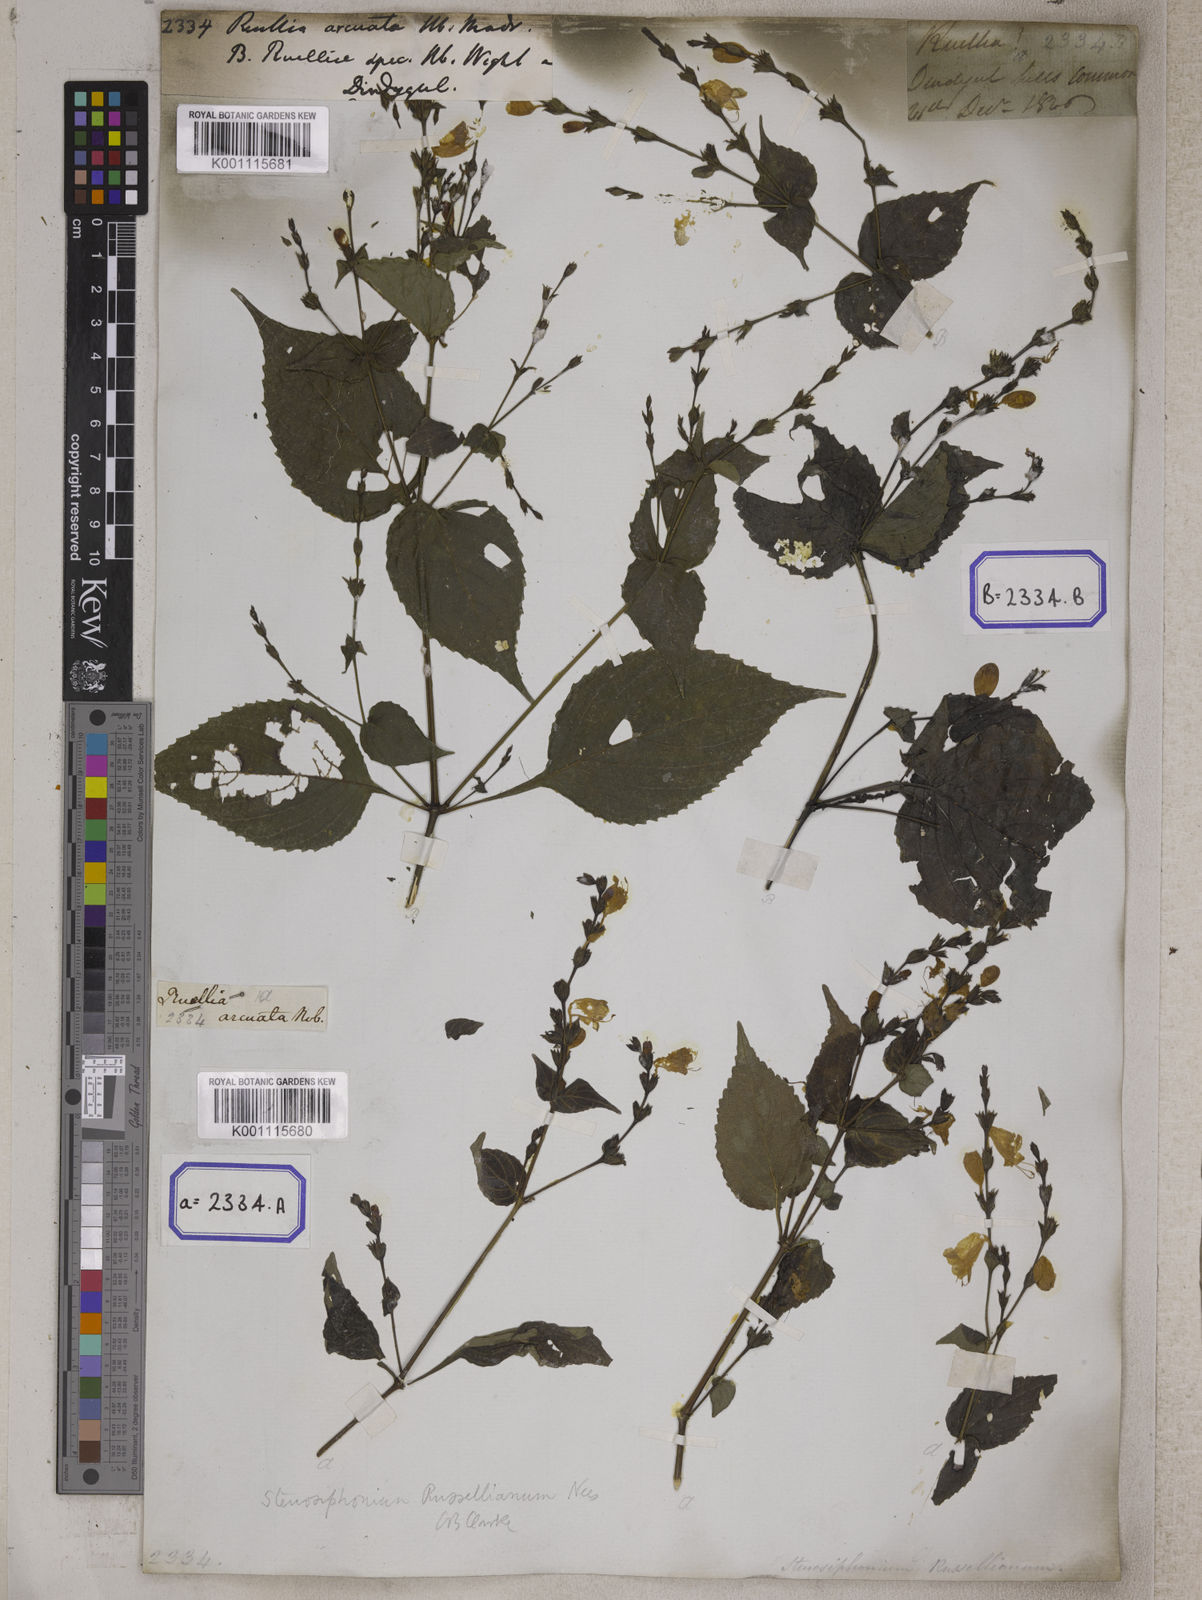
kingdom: Plantae
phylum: Tracheophyta
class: Magnoliopsida
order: Lamiales
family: Acanthaceae
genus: Strobilanthes
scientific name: Strobilanthes cordifolia
